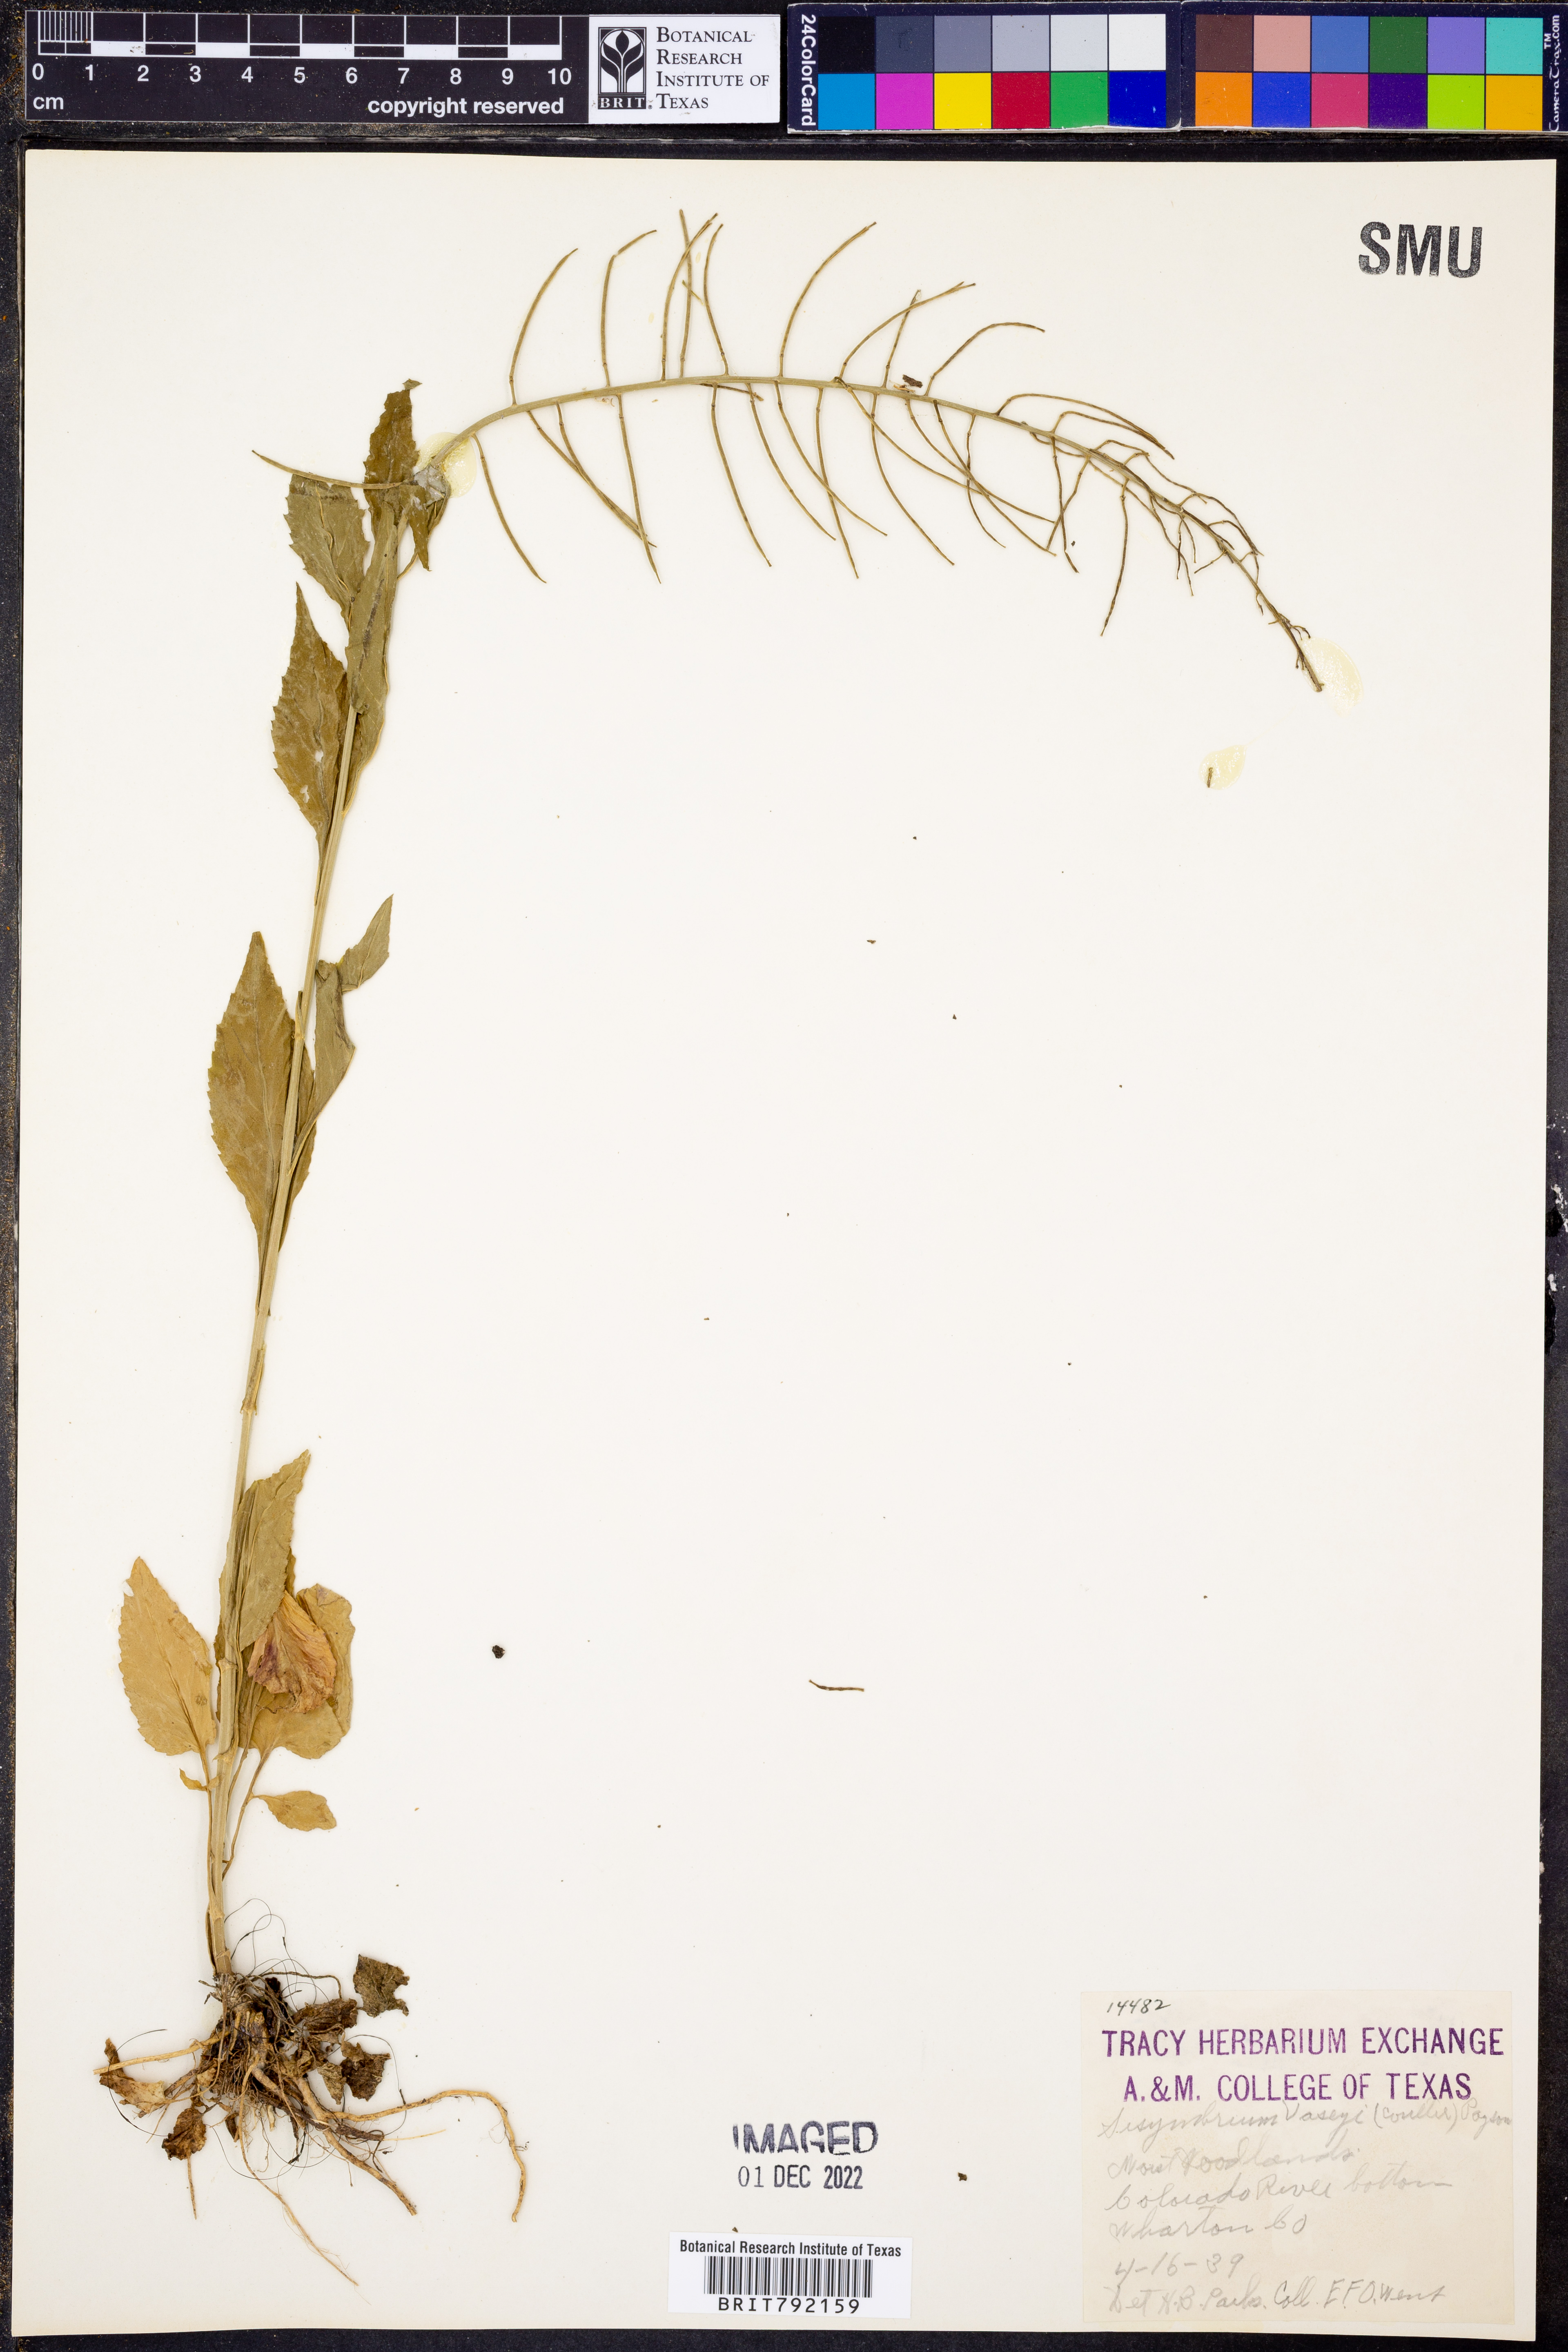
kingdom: Plantae
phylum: Tracheophyta
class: Magnoliopsida
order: Brassicales
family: Brassicaceae
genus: Mostacillastrum
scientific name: Mostacillastrum subauriculatum
